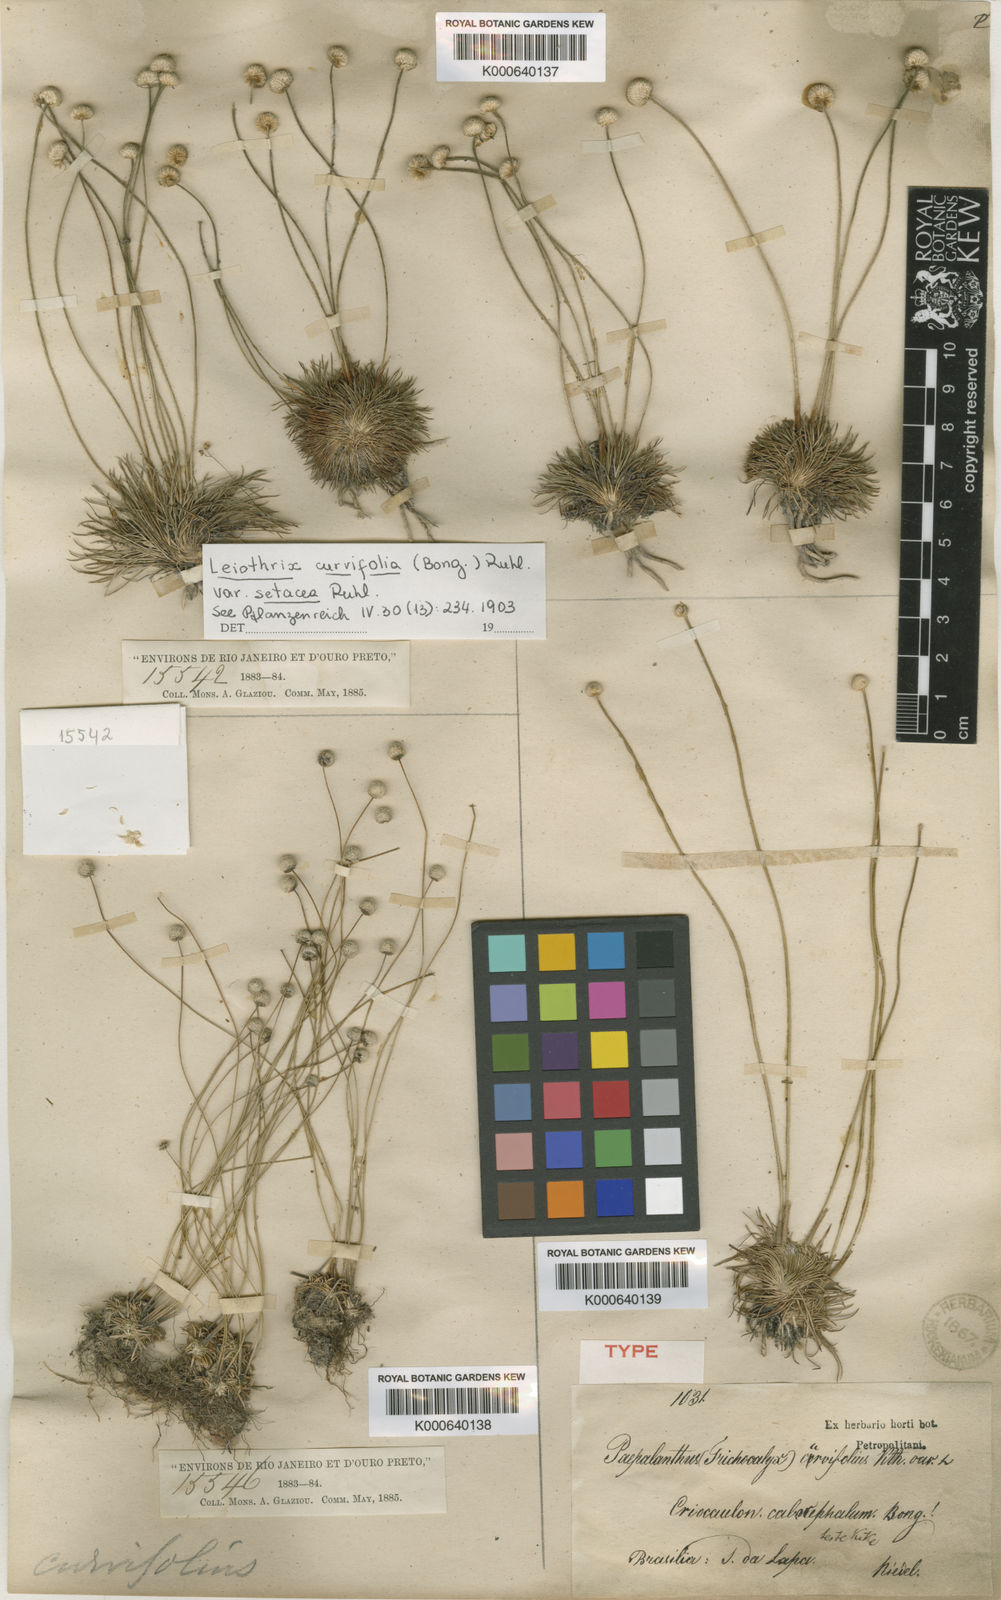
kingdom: Plantae
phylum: Tracheophyta
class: Liliopsida
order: Poales
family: Eriocaulaceae
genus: Leiothrix
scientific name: Leiothrix curvifolia
